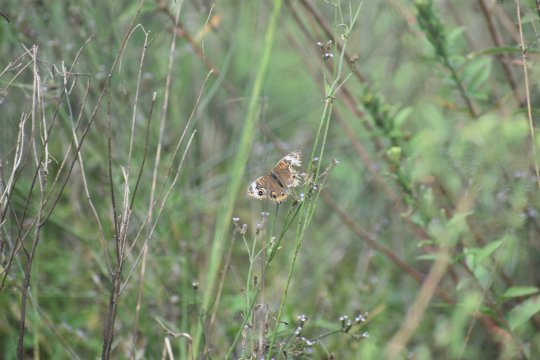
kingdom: Animalia
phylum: Arthropoda
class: Insecta
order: Lepidoptera
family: Nymphalidae
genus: Junonia
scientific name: Junonia coenia
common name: Common Buckeye
